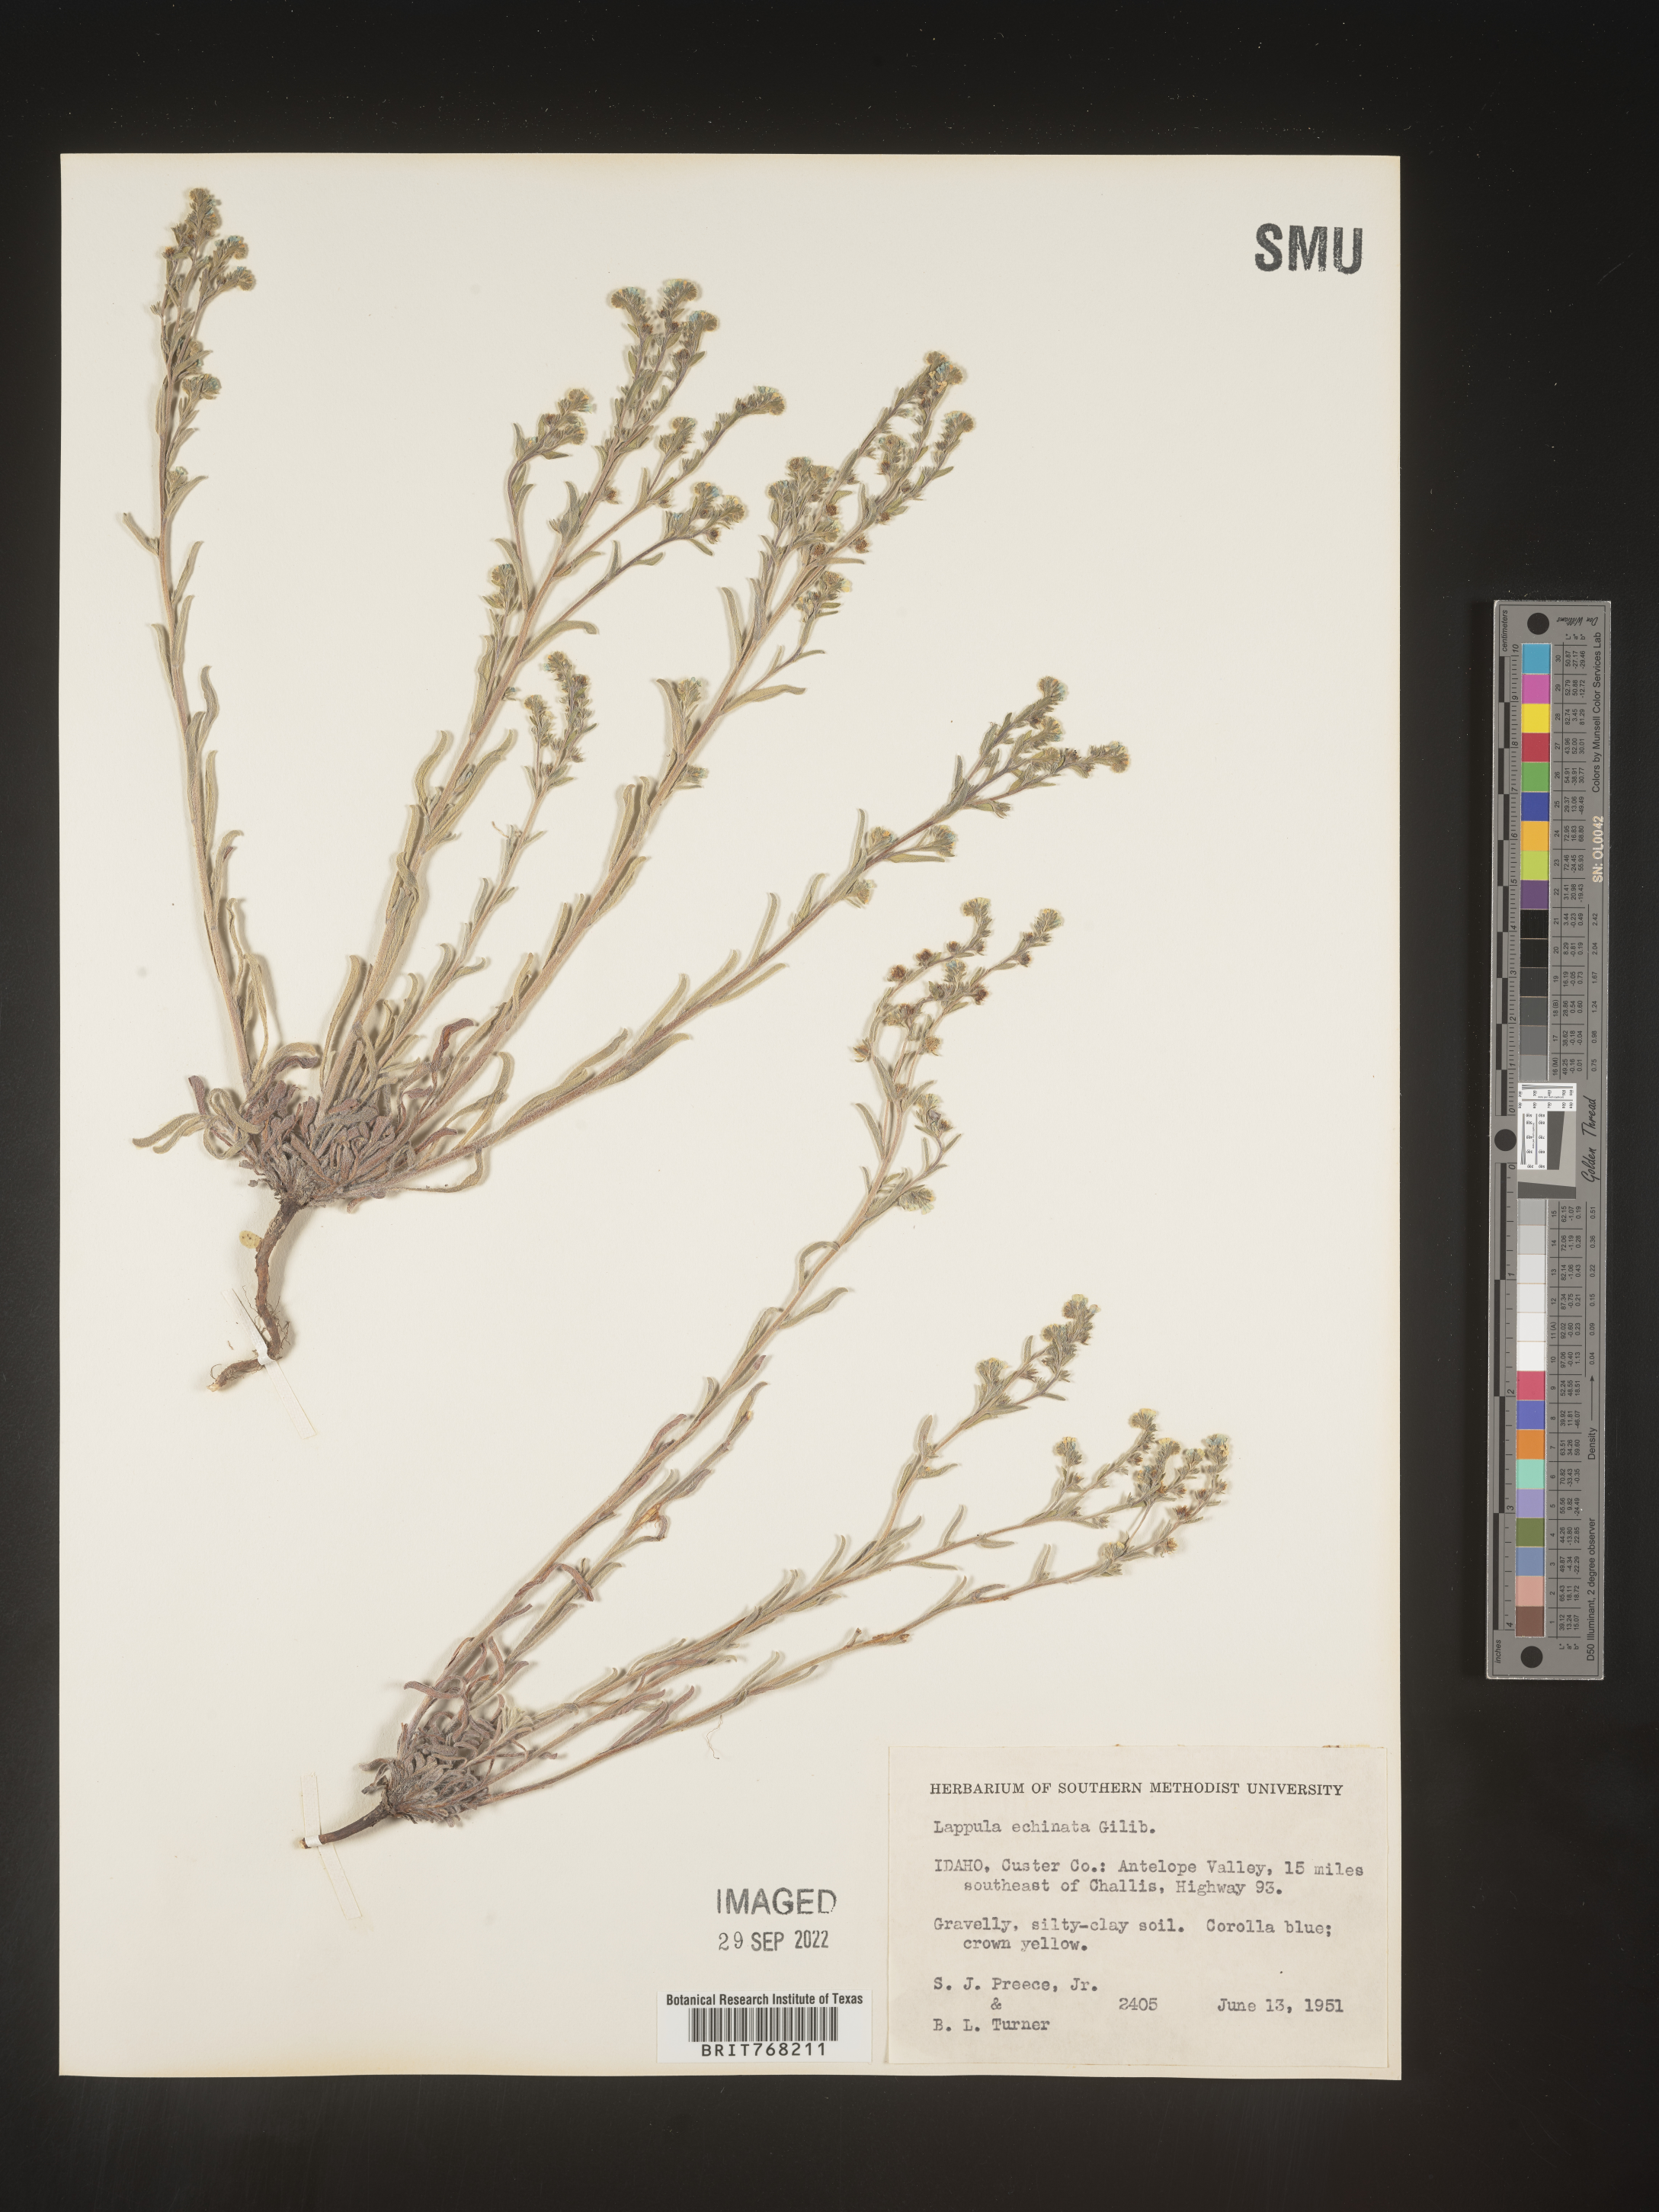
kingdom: Plantae
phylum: Tracheophyta
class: Magnoliopsida
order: Boraginales
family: Boraginaceae
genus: Lappula
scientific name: Lappula
